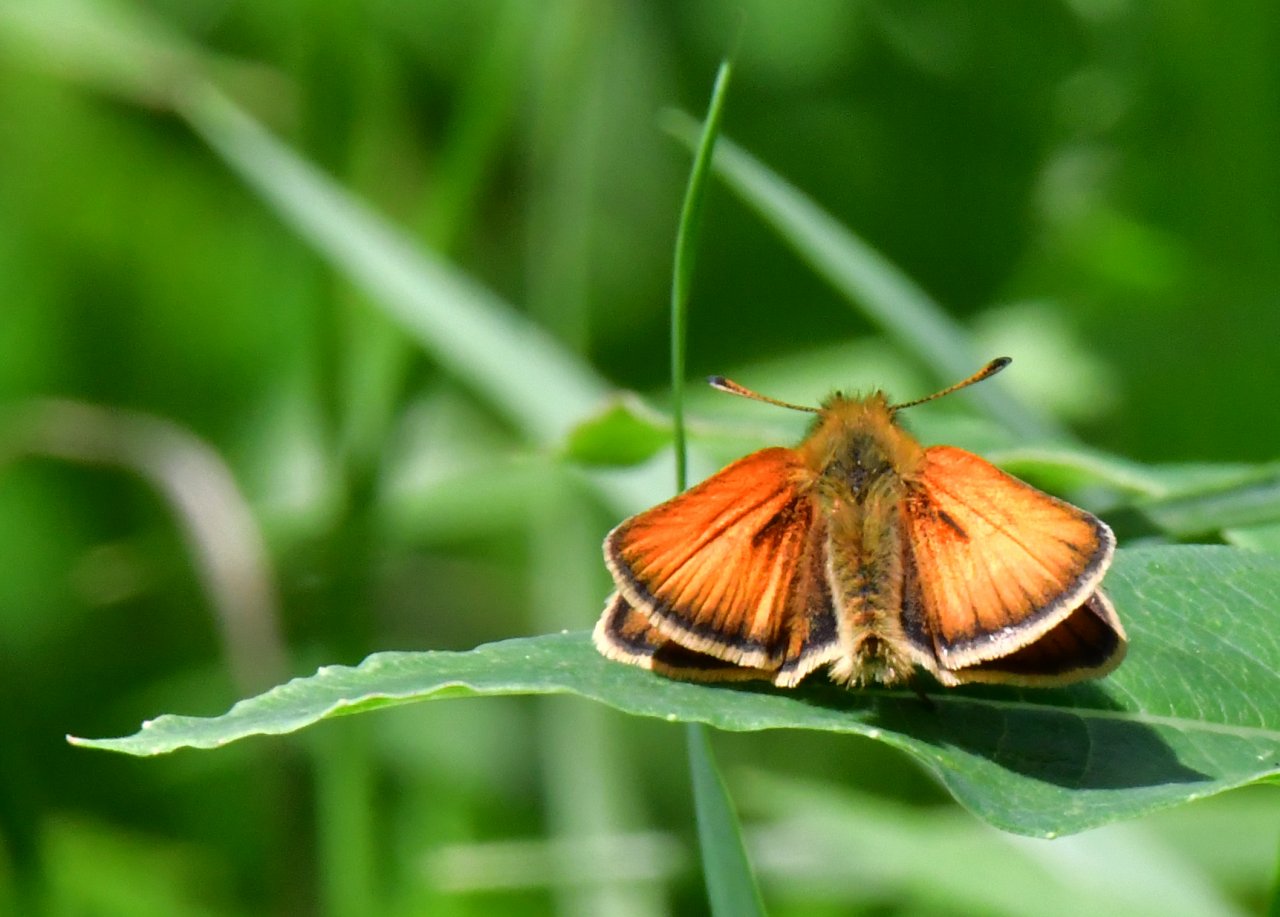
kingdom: Animalia
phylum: Arthropoda
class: Insecta
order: Lepidoptera
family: Hesperiidae
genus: Thymelicus
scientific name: Thymelicus lineola
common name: European Skipper
